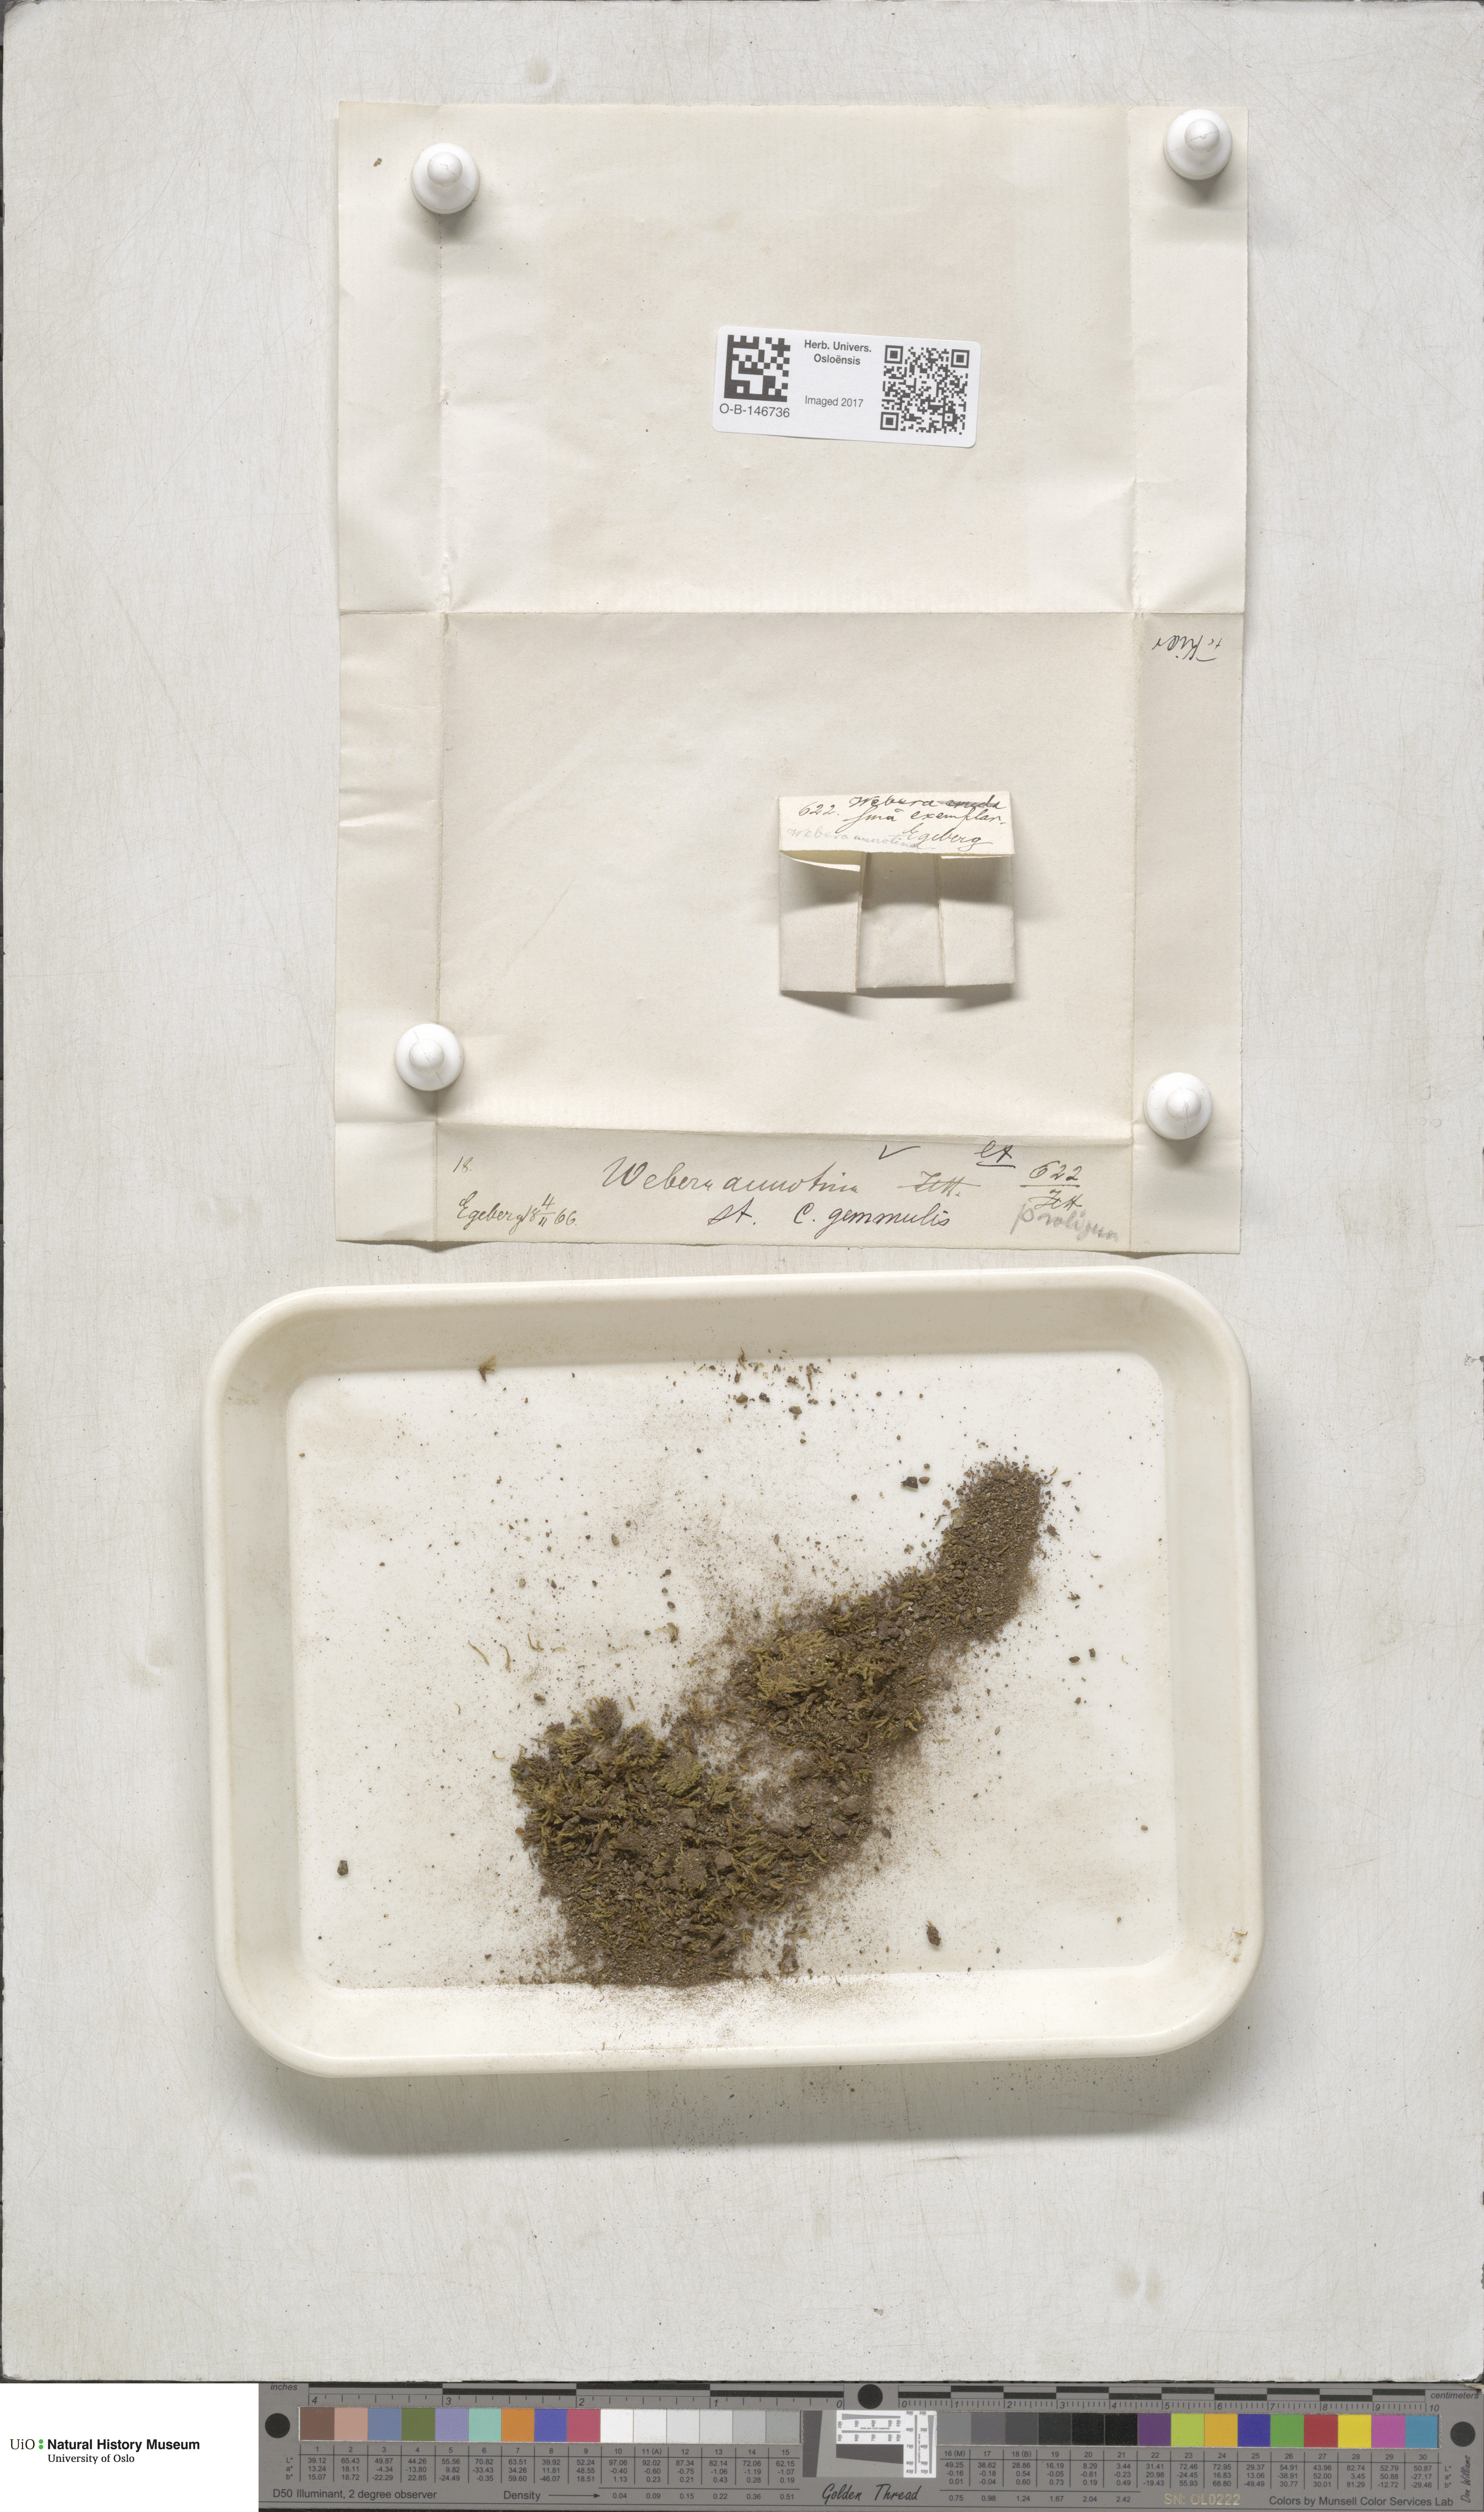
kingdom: Plantae
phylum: Bryophyta
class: Bryopsida
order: Bryales
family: Mniaceae
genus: Pohlia
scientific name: Pohlia proligera
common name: Cottony nodding moss
